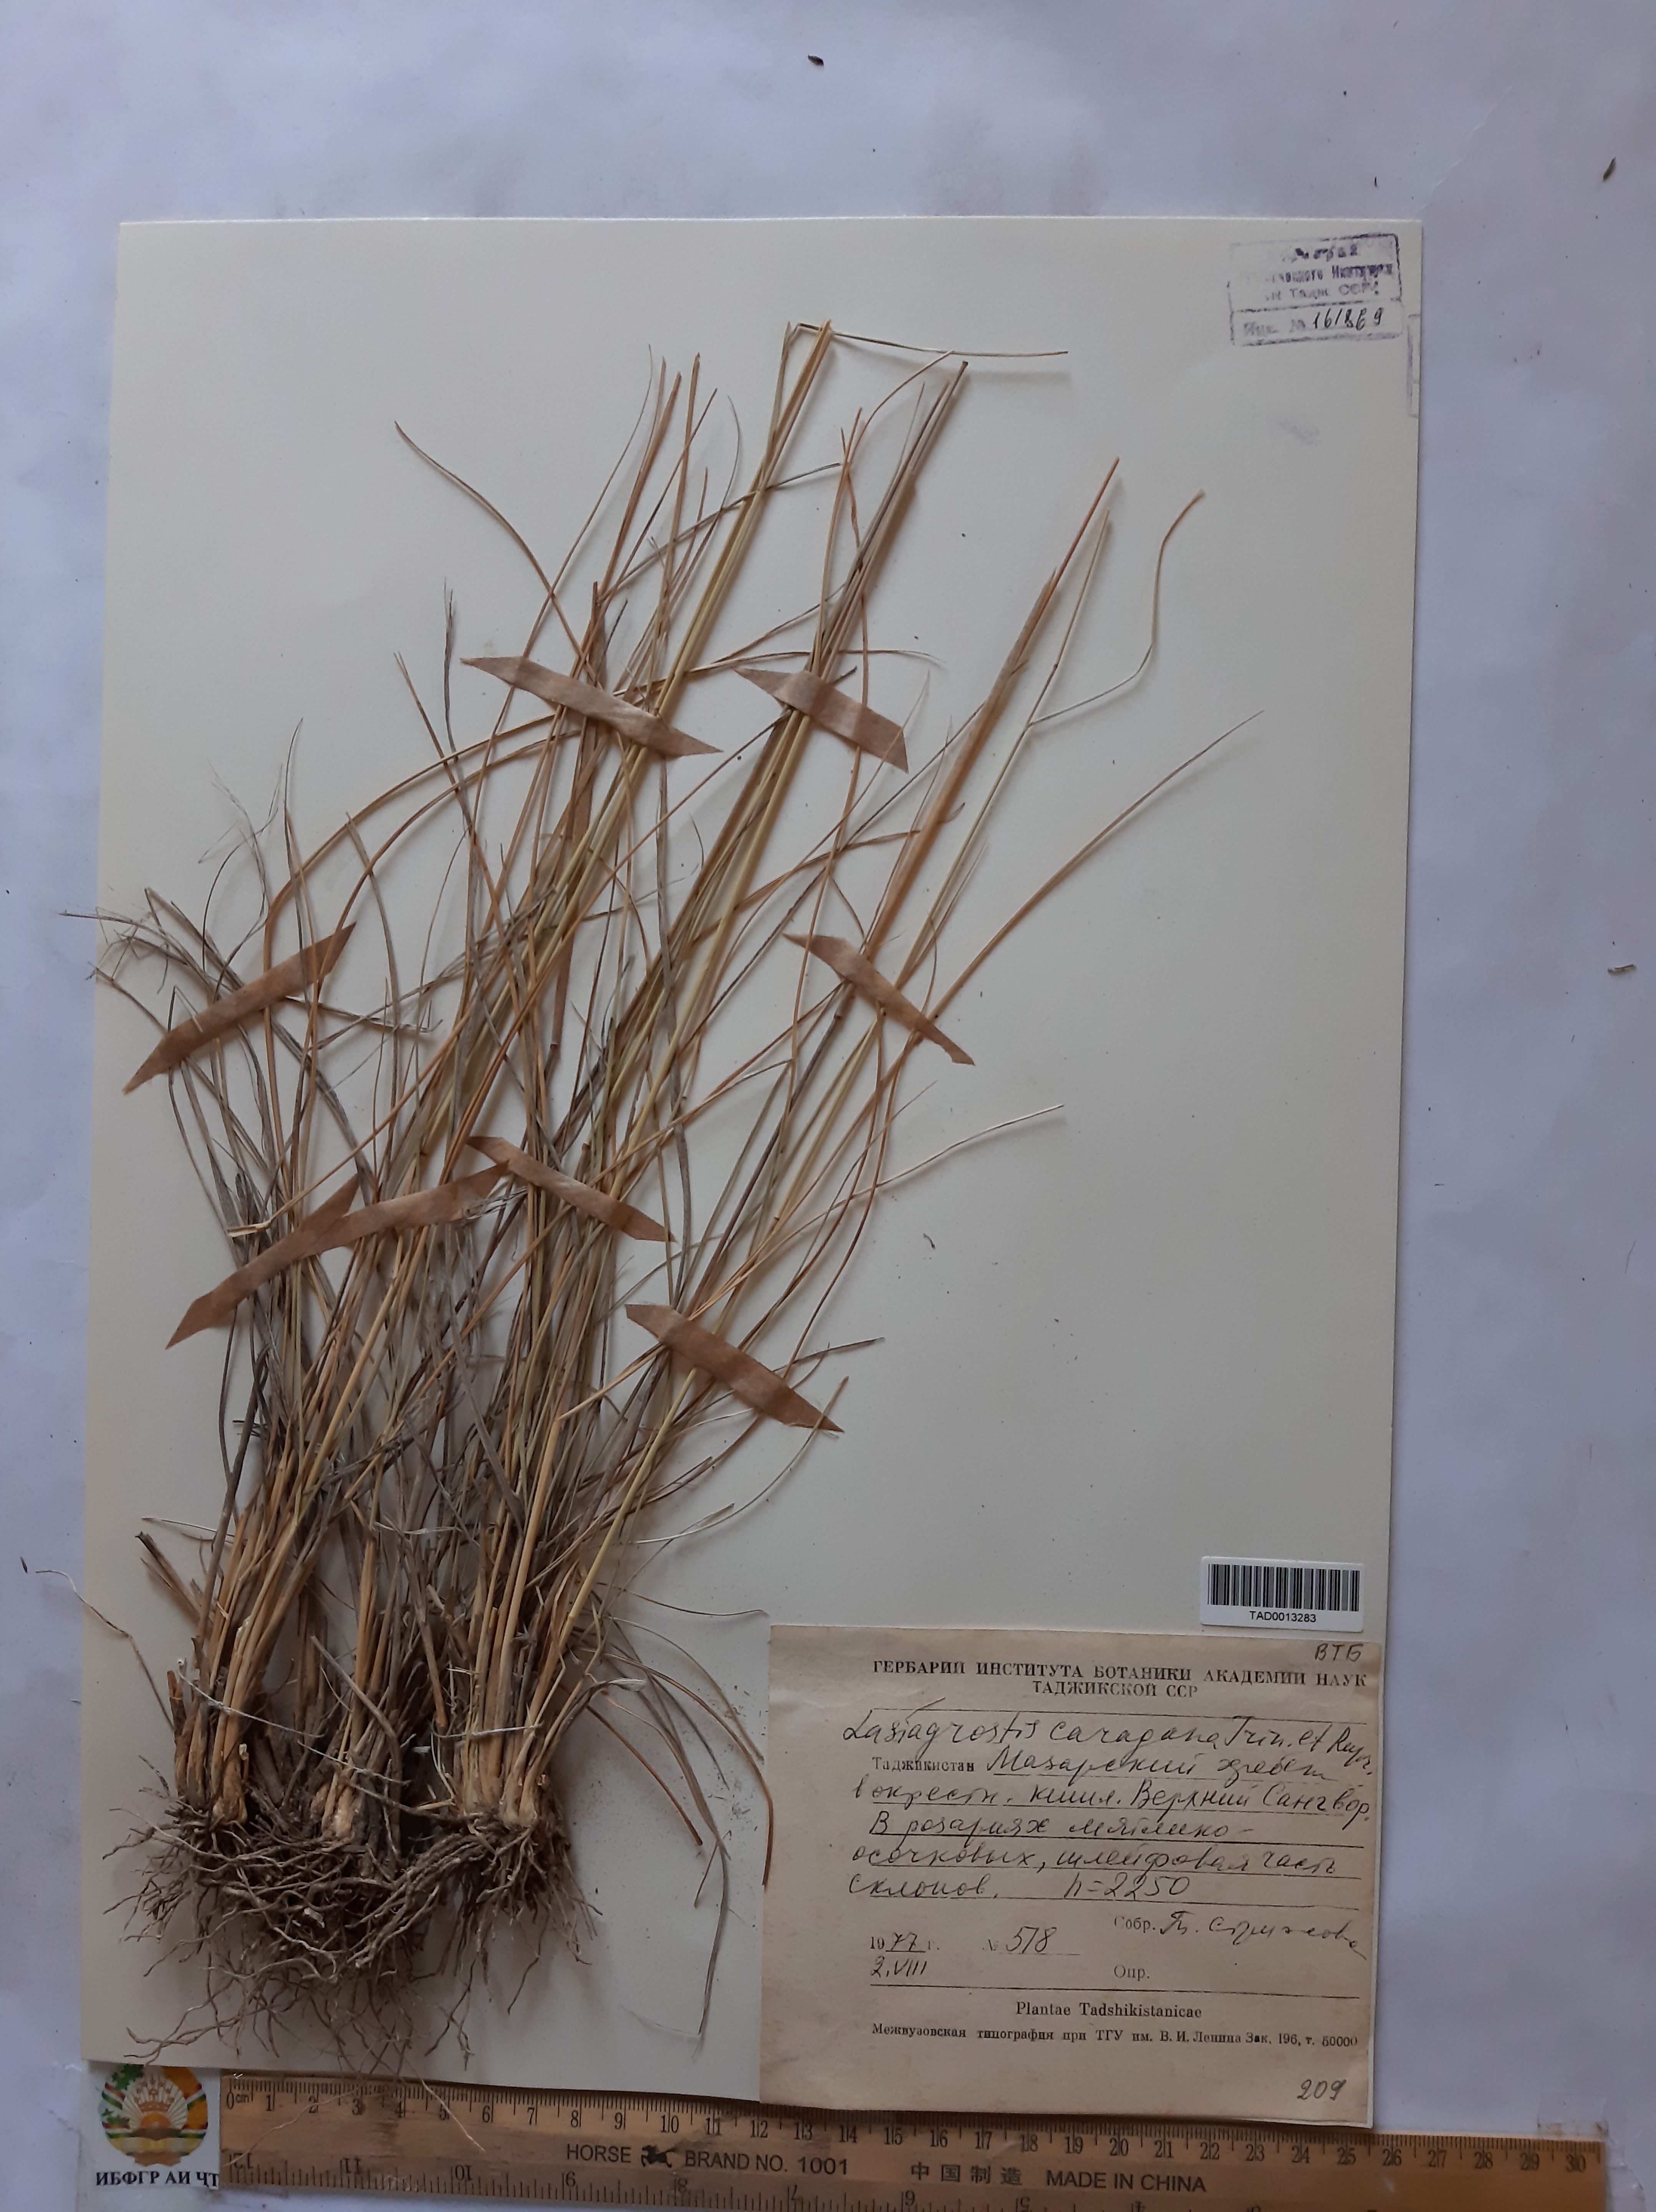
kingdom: Plantae
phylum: Tracheophyta
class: Liliopsida
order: Poales
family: Poaceae
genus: Stipa
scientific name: Stipa conferta
